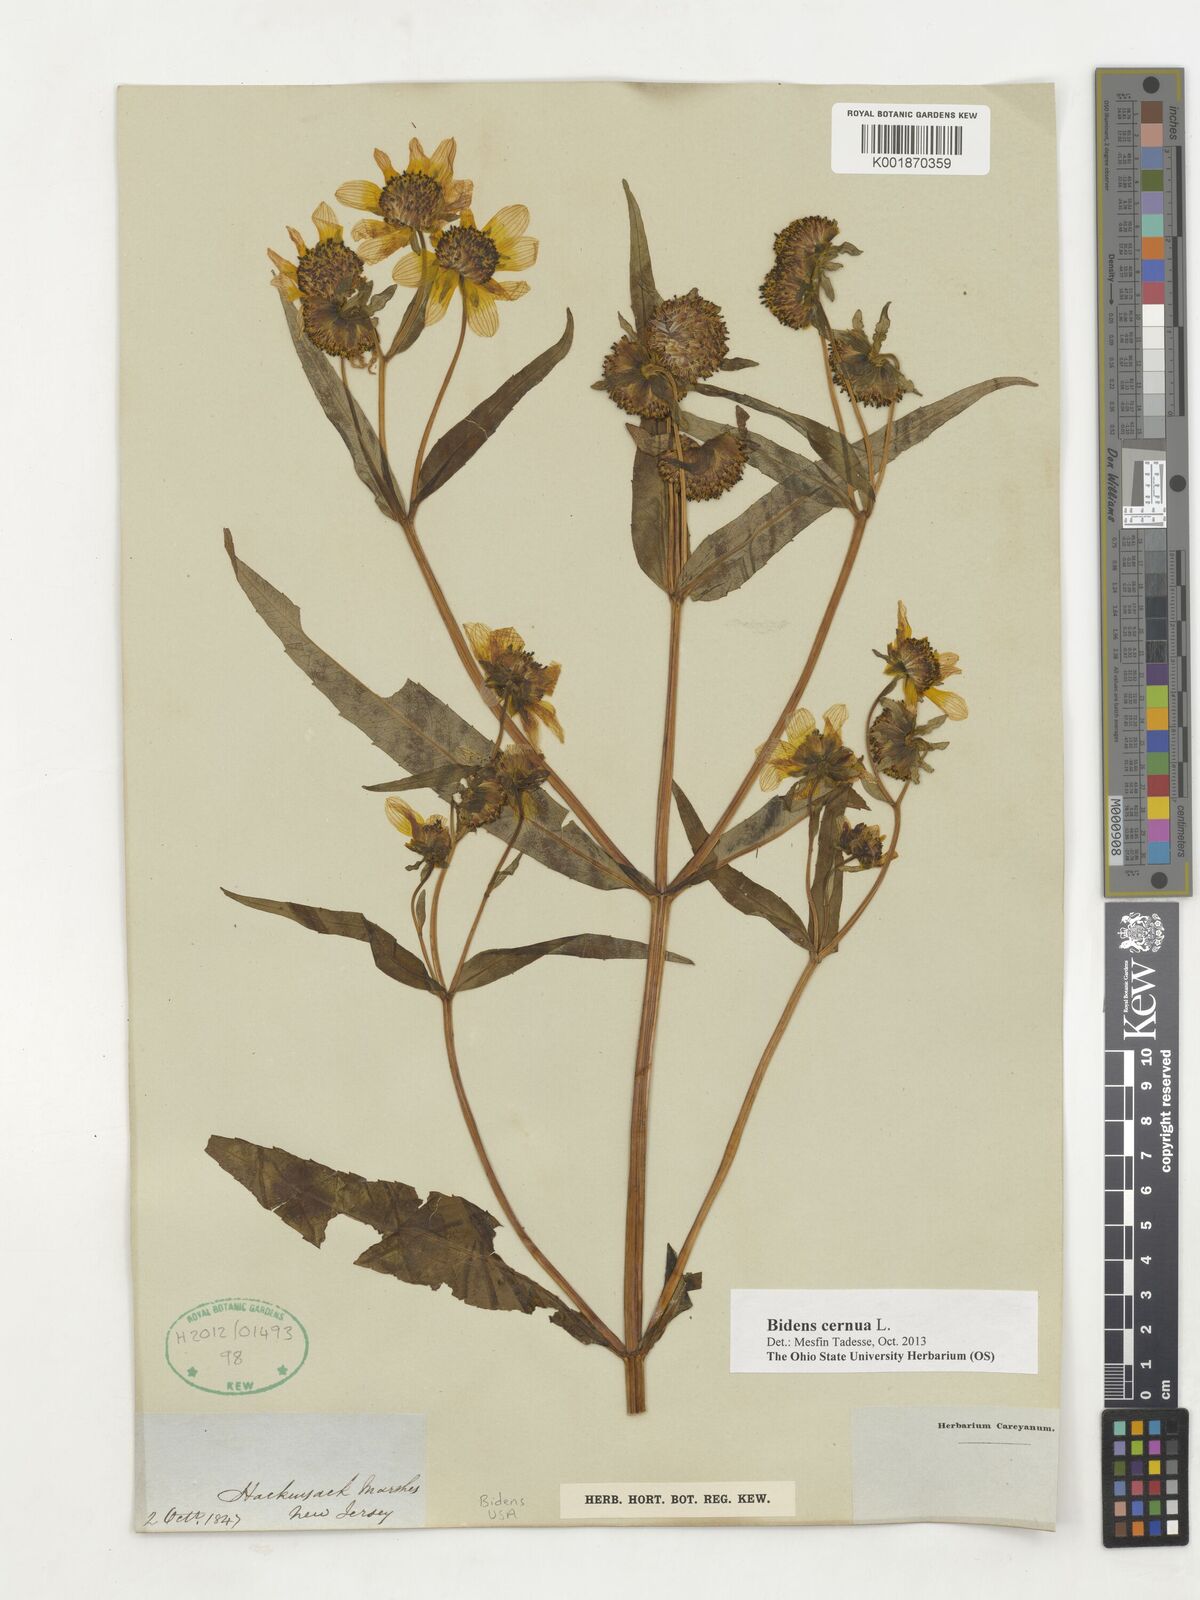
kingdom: Plantae
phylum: Tracheophyta
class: Magnoliopsida
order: Asterales
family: Asteraceae
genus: Bidens
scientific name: Bidens cernua
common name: Nodding bur-marigold
